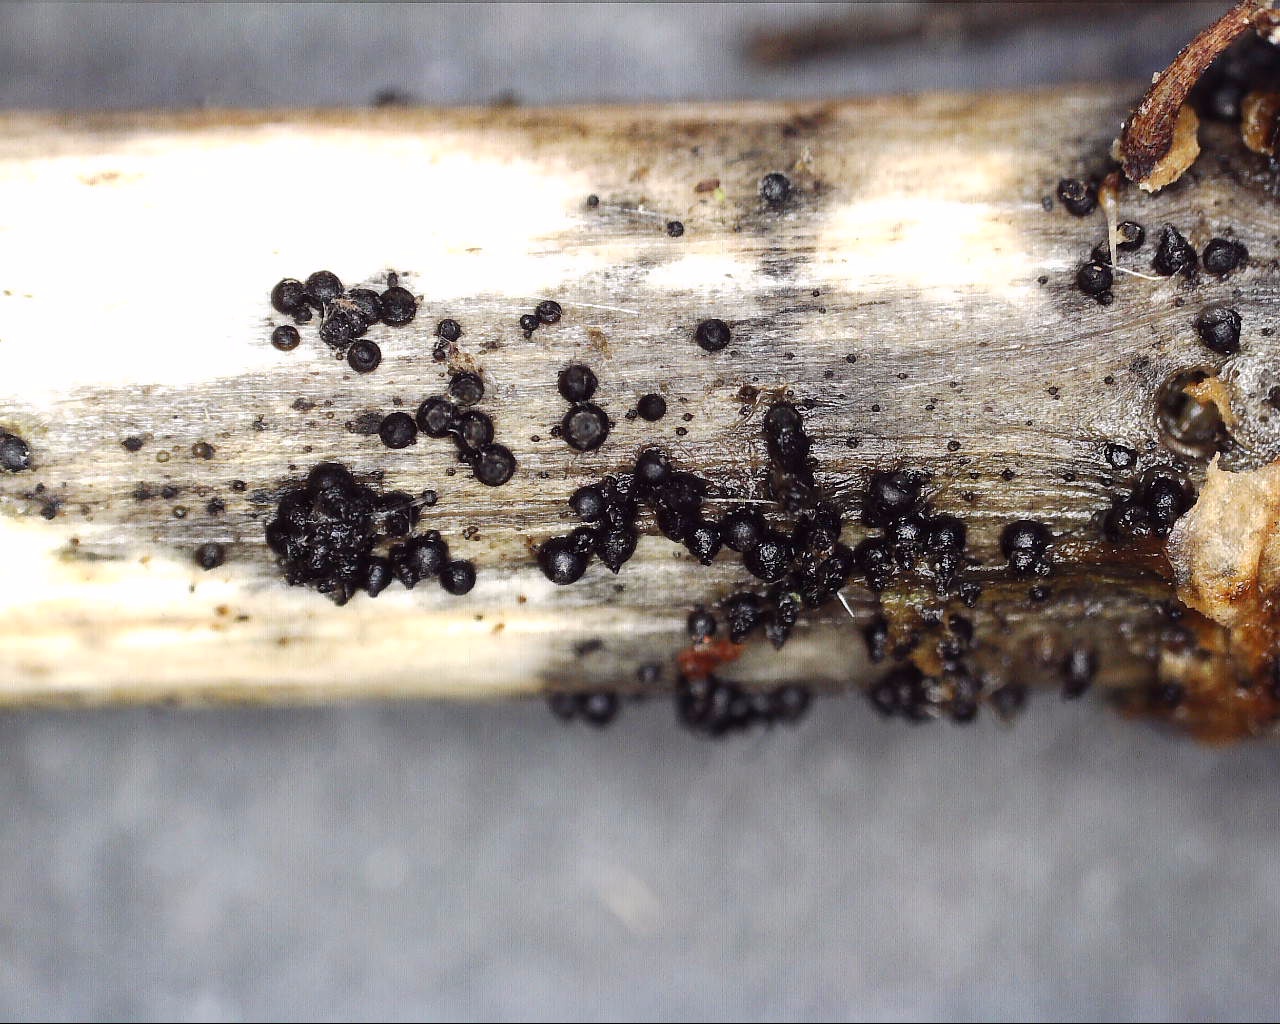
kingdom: Fungi
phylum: Ascomycota
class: Dothideomycetes
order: Pleosporales
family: Leptosphaeriaceae
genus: Leptosphaeria
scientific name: Leptosphaeria acuta
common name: spids kulkegle
